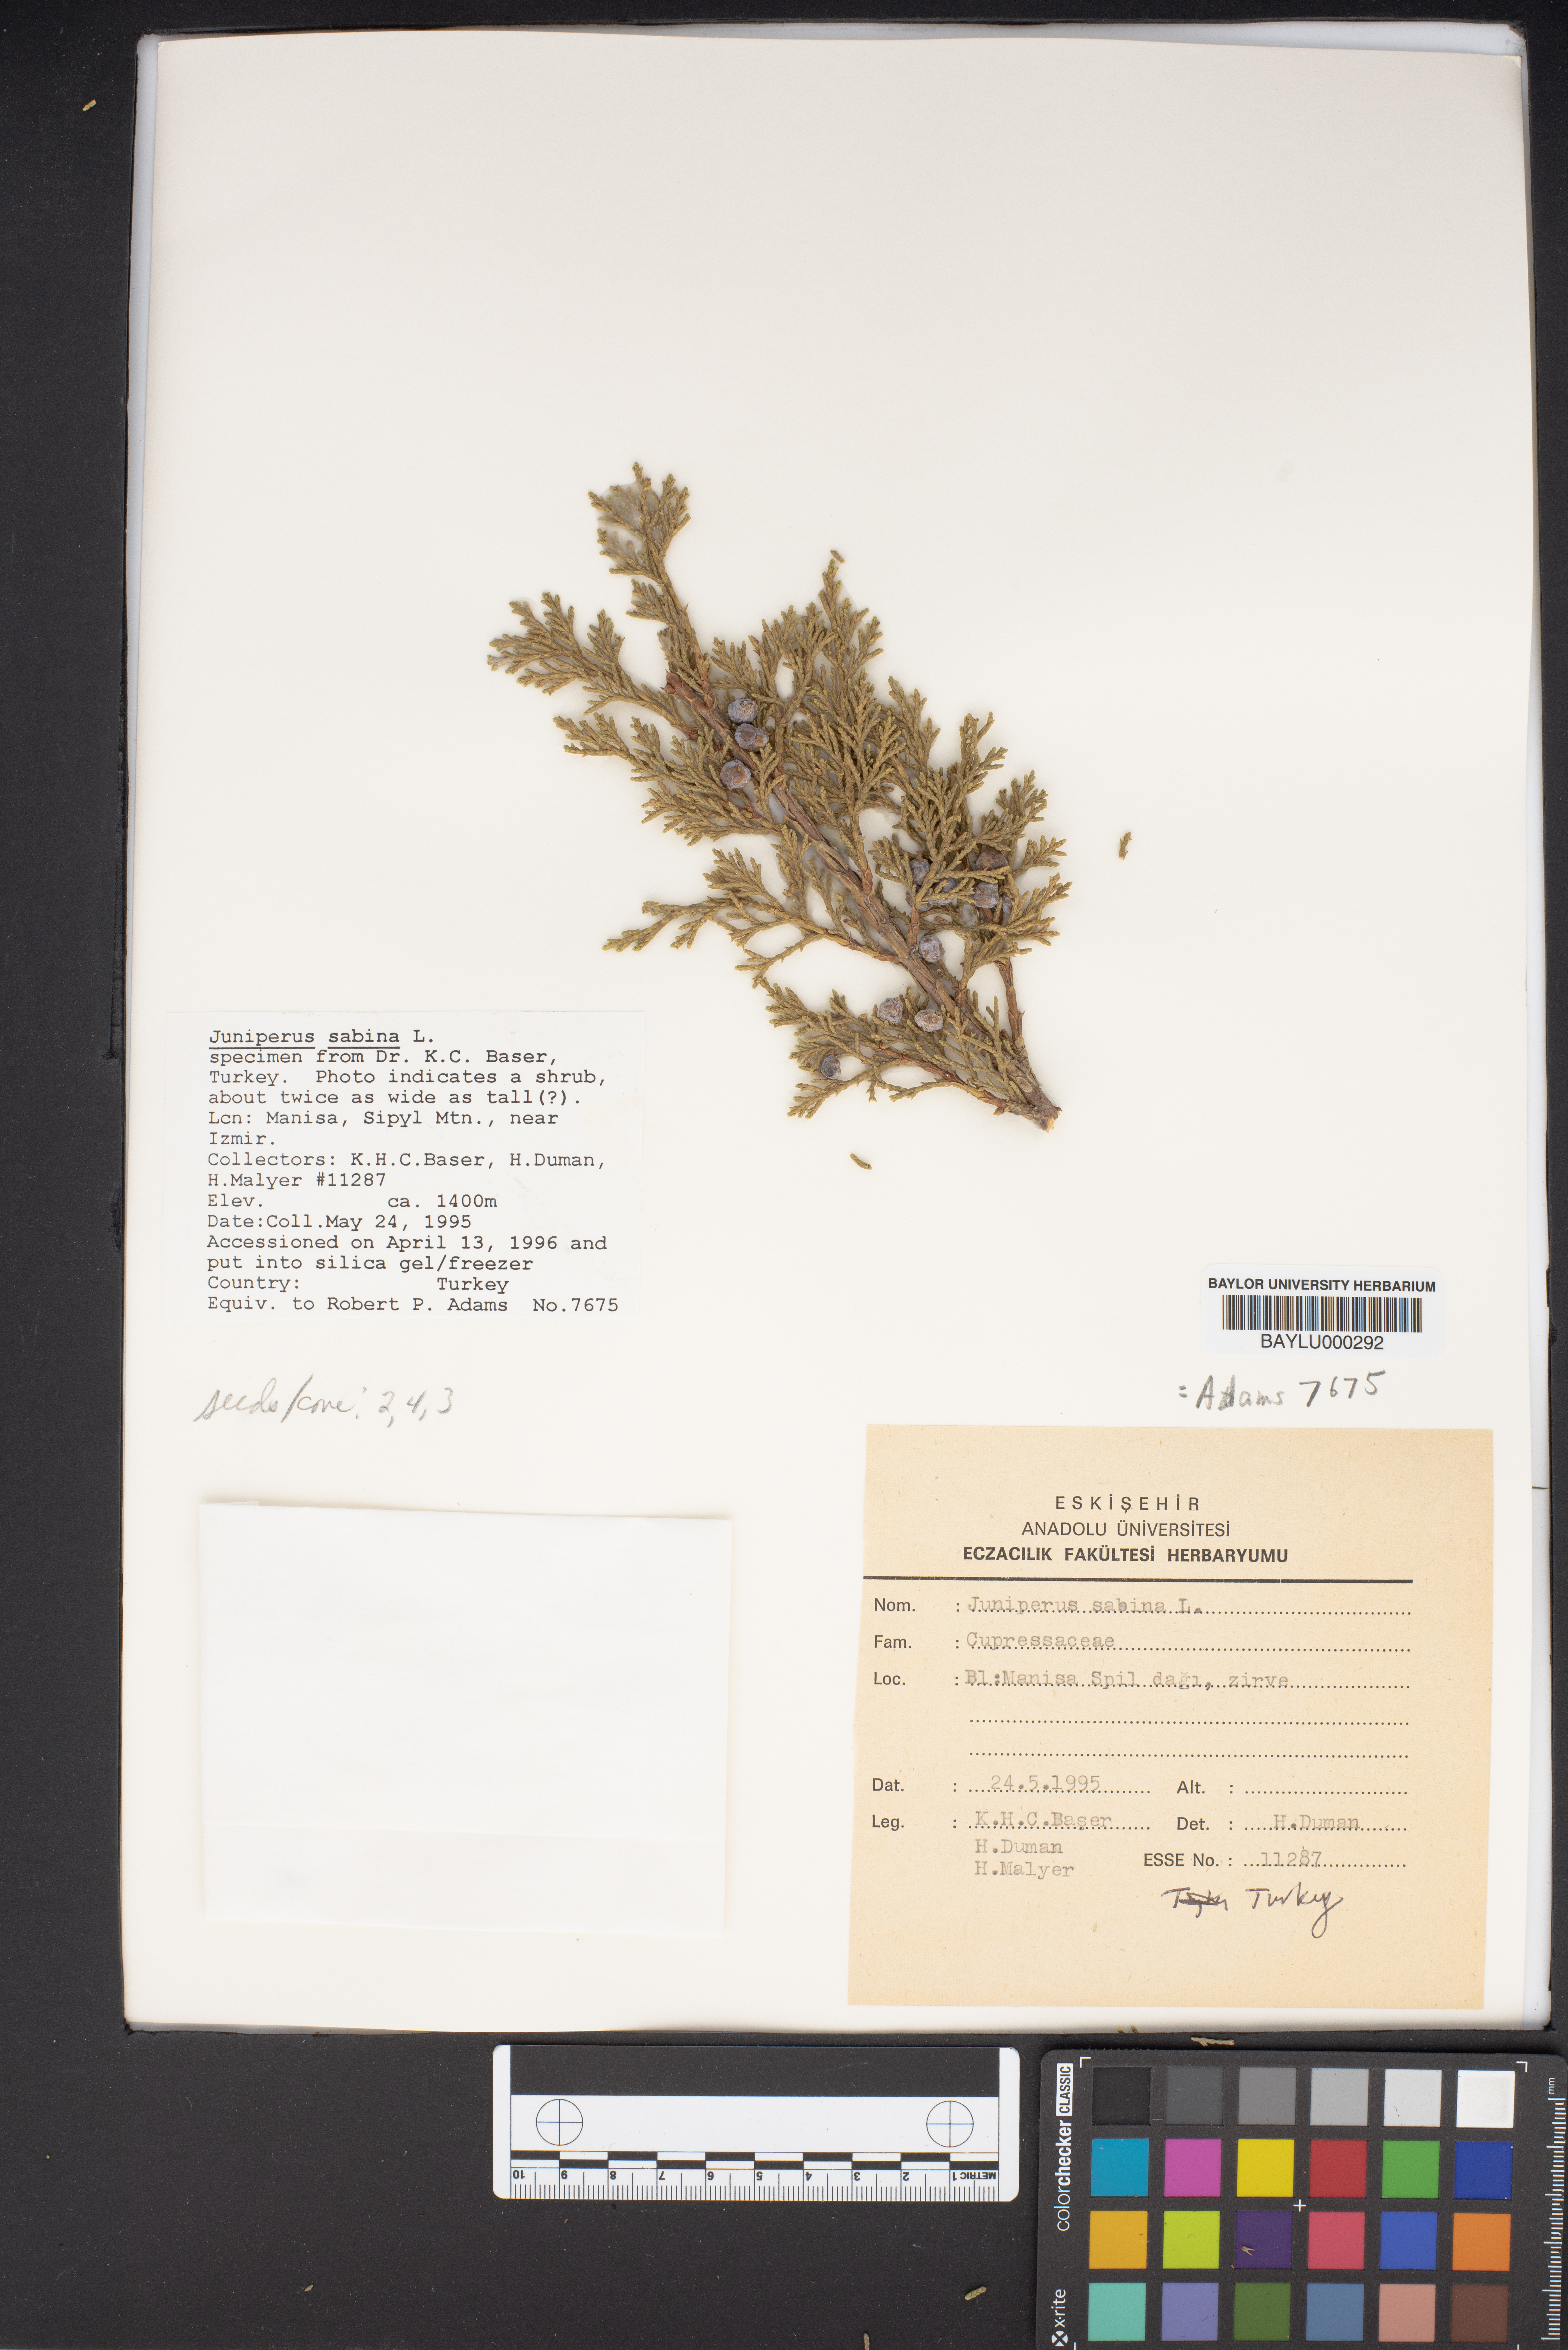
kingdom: Plantae
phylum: Tracheophyta
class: Pinopsida
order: Pinales
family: Cupressaceae
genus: Juniperus
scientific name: Juniperus sabina
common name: Savin
